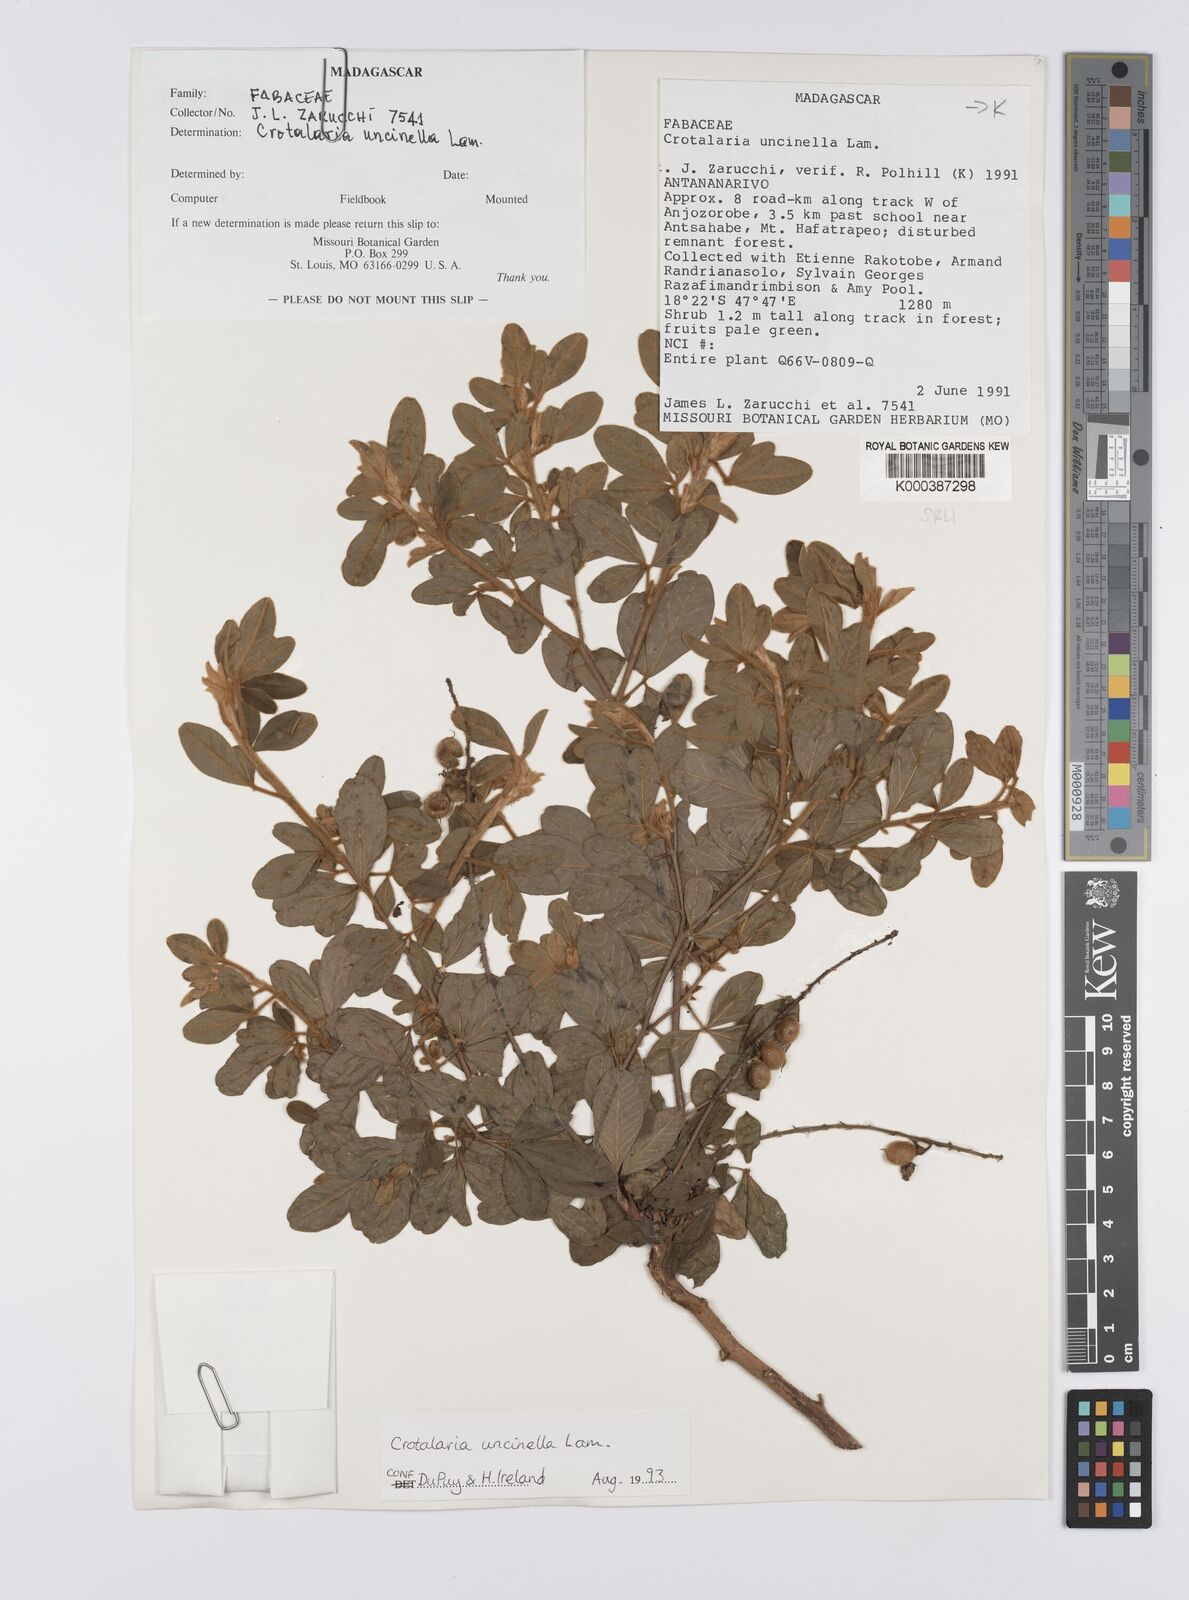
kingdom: Plantae
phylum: Tracheophyta
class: Magnoliopsida
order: Fabales
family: Fabaceae
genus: Crotalaria
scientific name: Crotalaria uncinella
